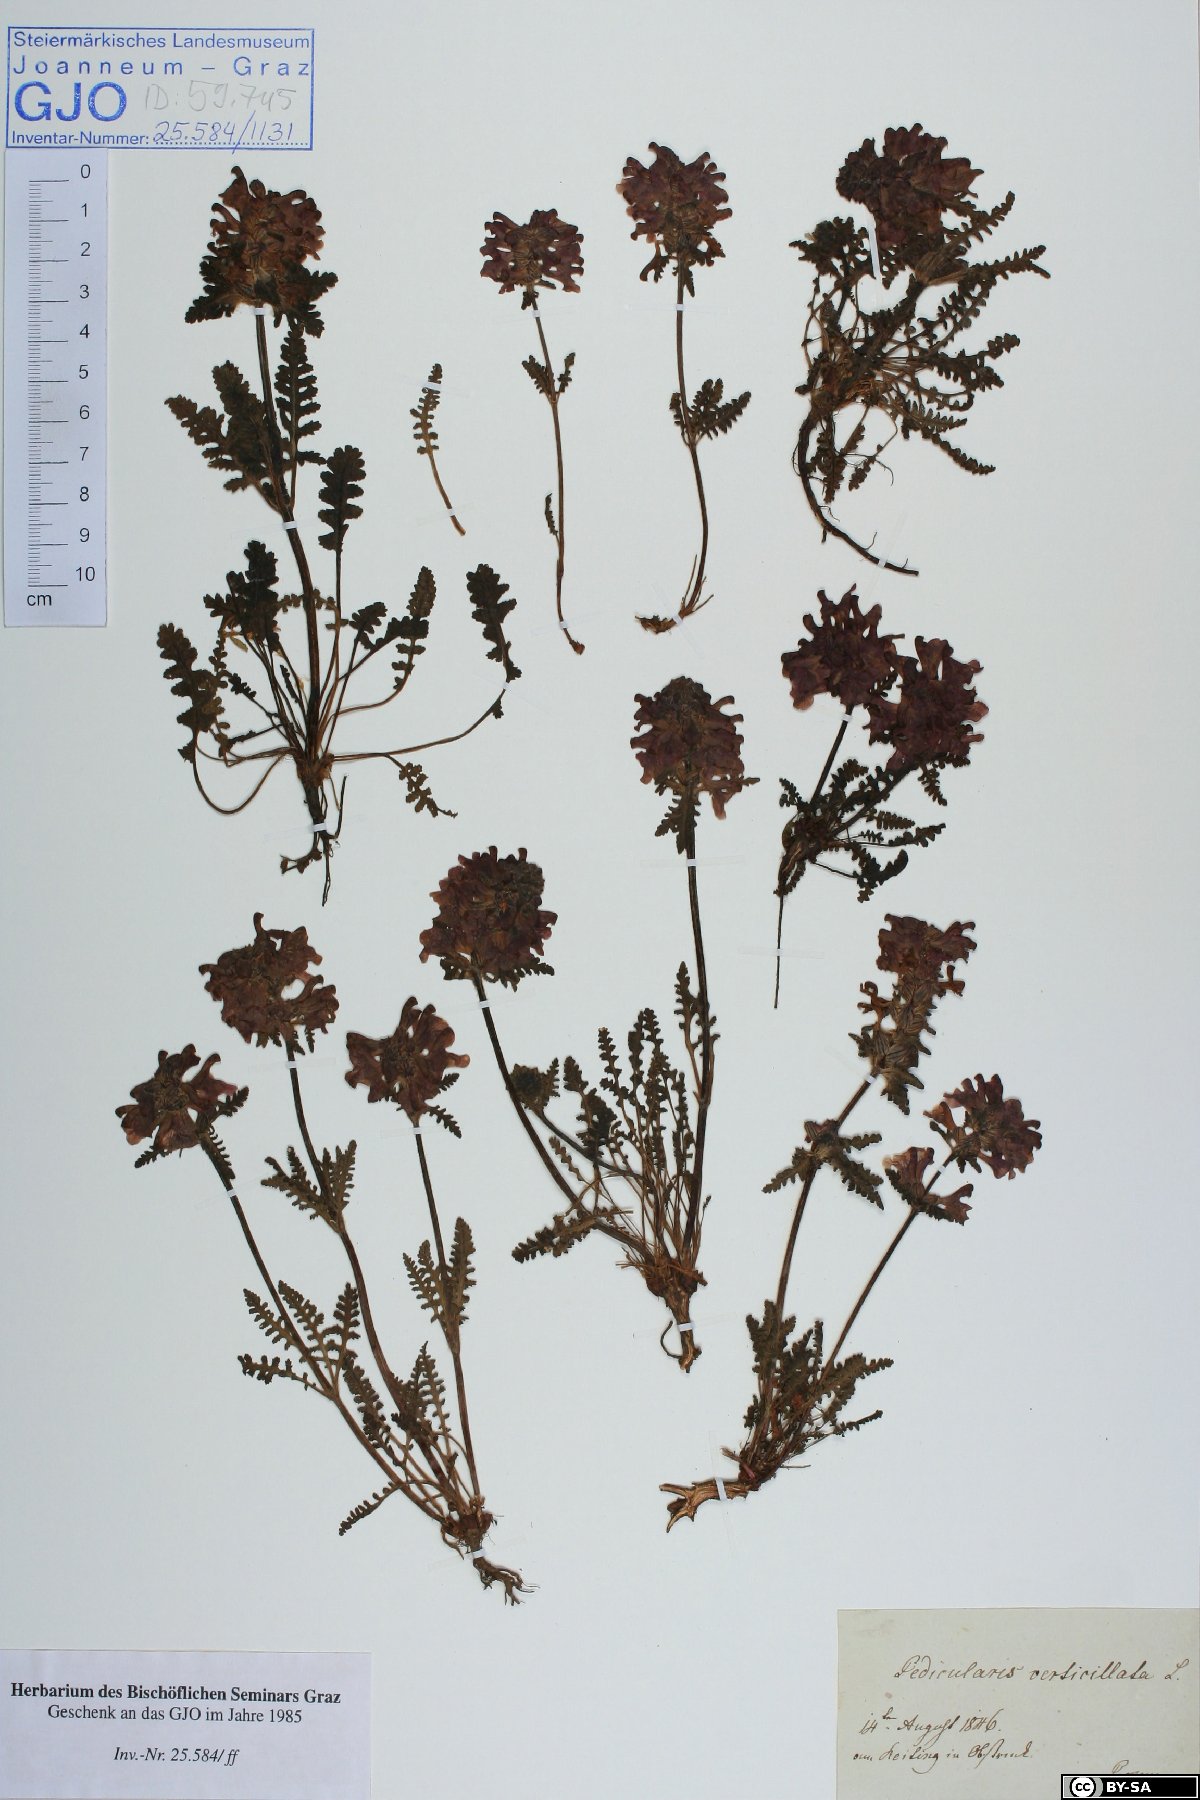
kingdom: Plantae
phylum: Tracheophyta
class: Magnoliopsida
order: Lamiales
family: Orobanchaceae
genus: Pedicularis
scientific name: Pedicularis verticillata
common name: Whorled lousewort
